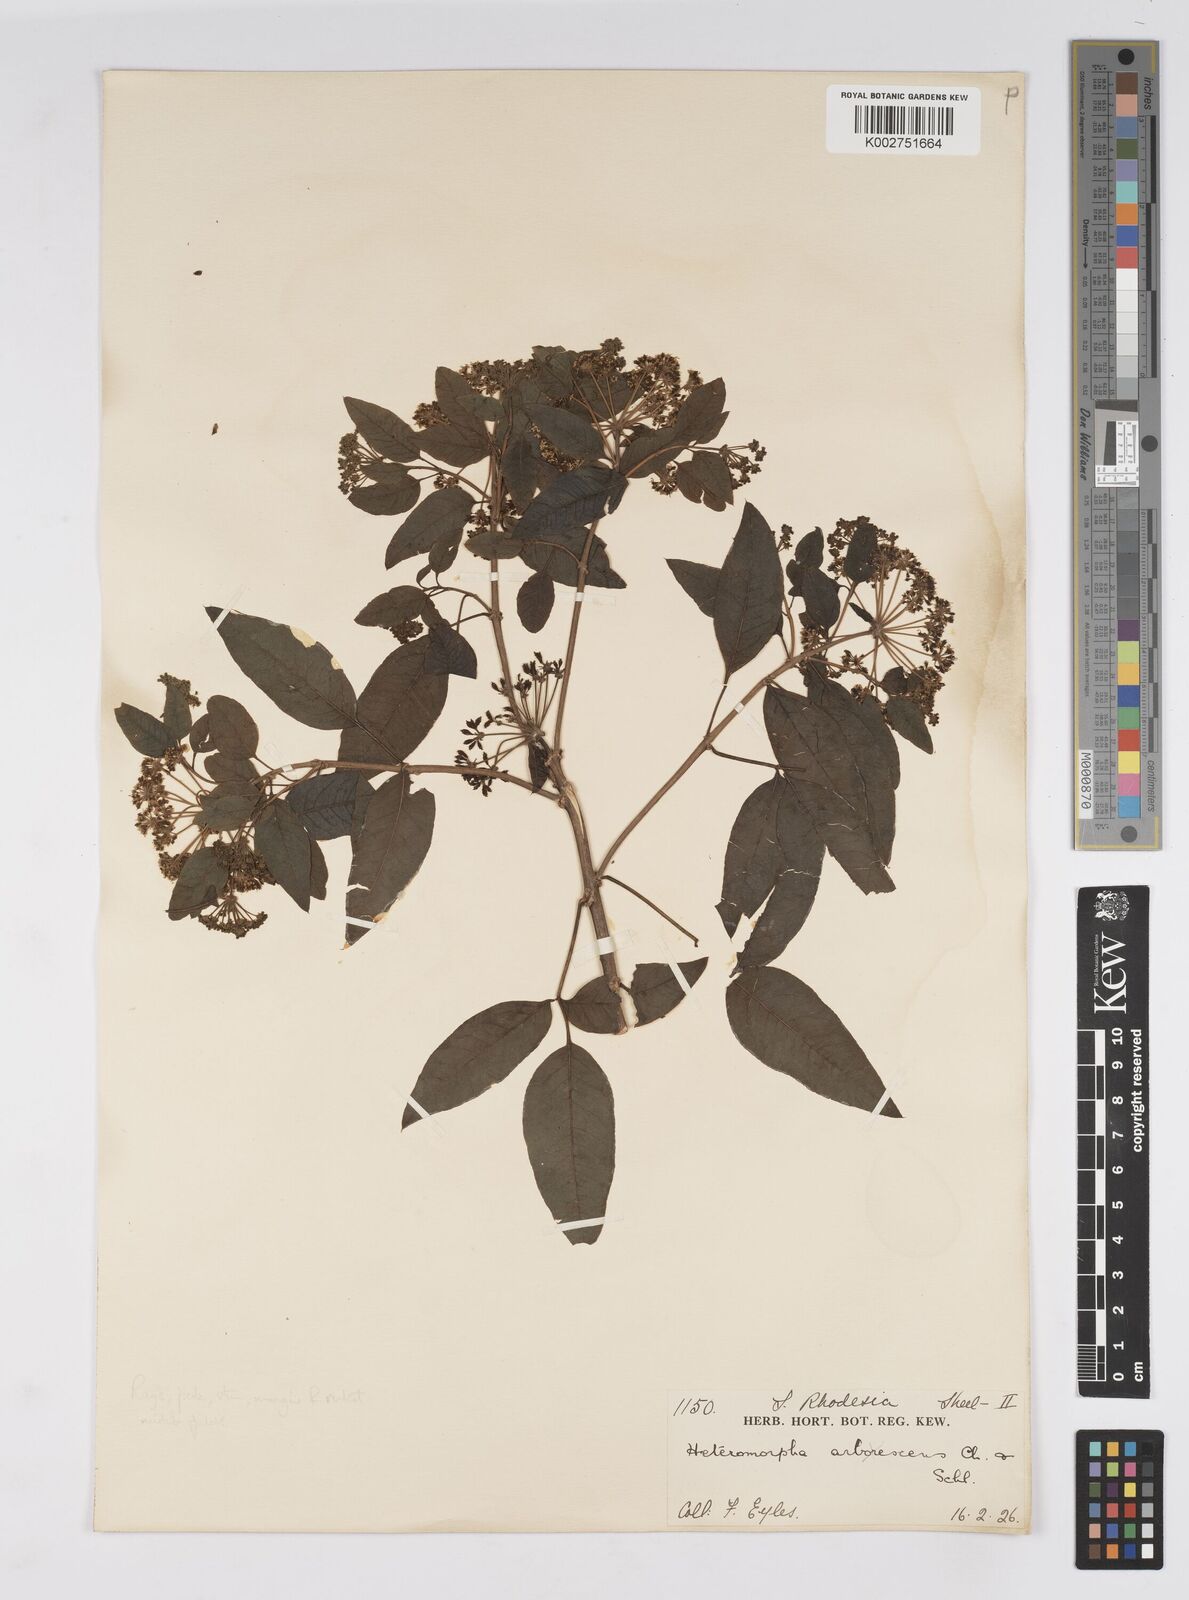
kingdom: Plantae
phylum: Tracheophyta
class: Magnoliopsida
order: Apiales
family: Apiaceae
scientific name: Apiaceae
